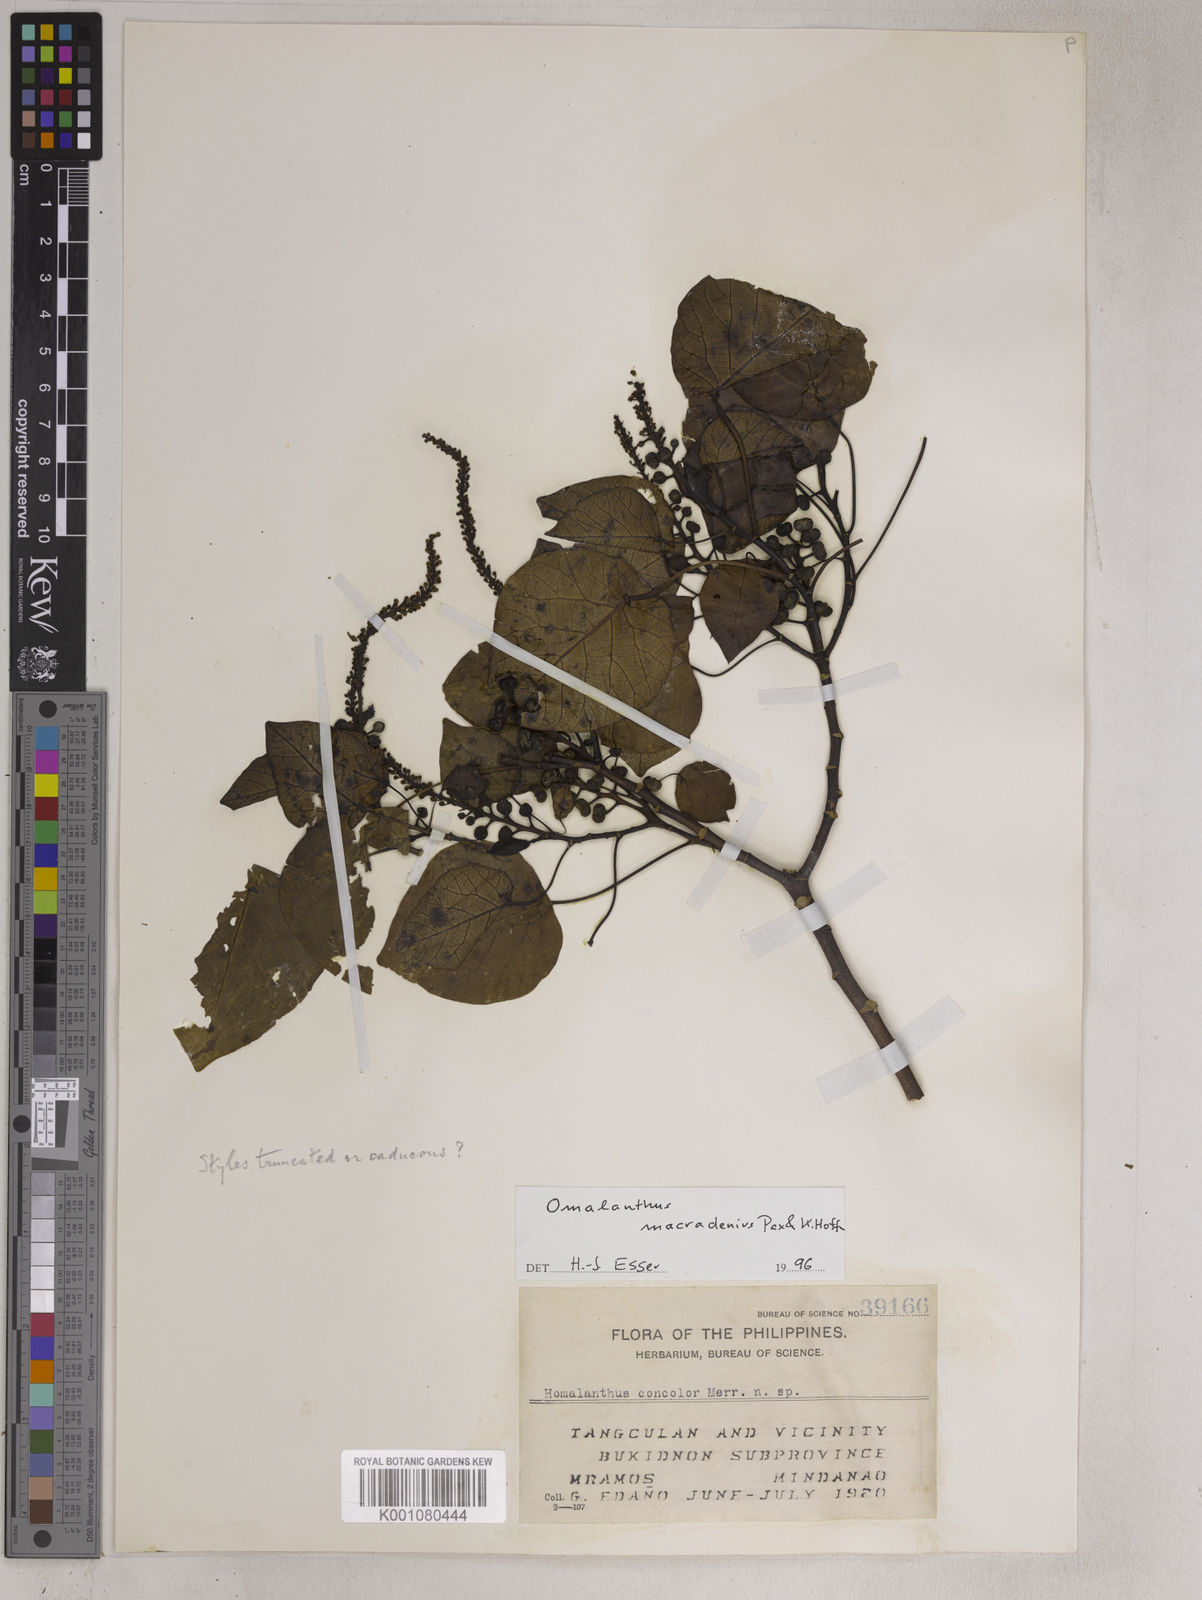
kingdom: Plantae
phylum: Tracheophyta
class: Magnoliopsida
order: Malpighiales
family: Euphorbiaceae
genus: Homalanthus
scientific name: Homalanthus macradenius
